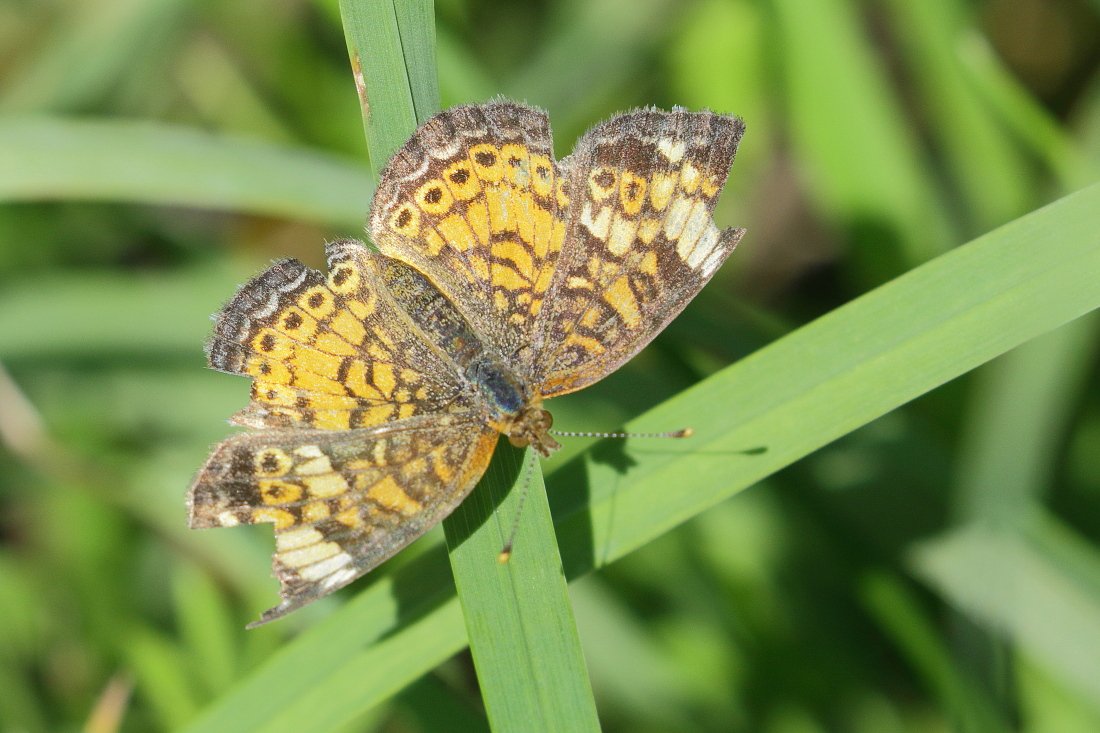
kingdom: Animalia
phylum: Arthropoda
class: Insecta
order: Lepidoptera
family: Nymphalidae
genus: Phyciodes
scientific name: Phyciodes tharos
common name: Pearl Crescent
